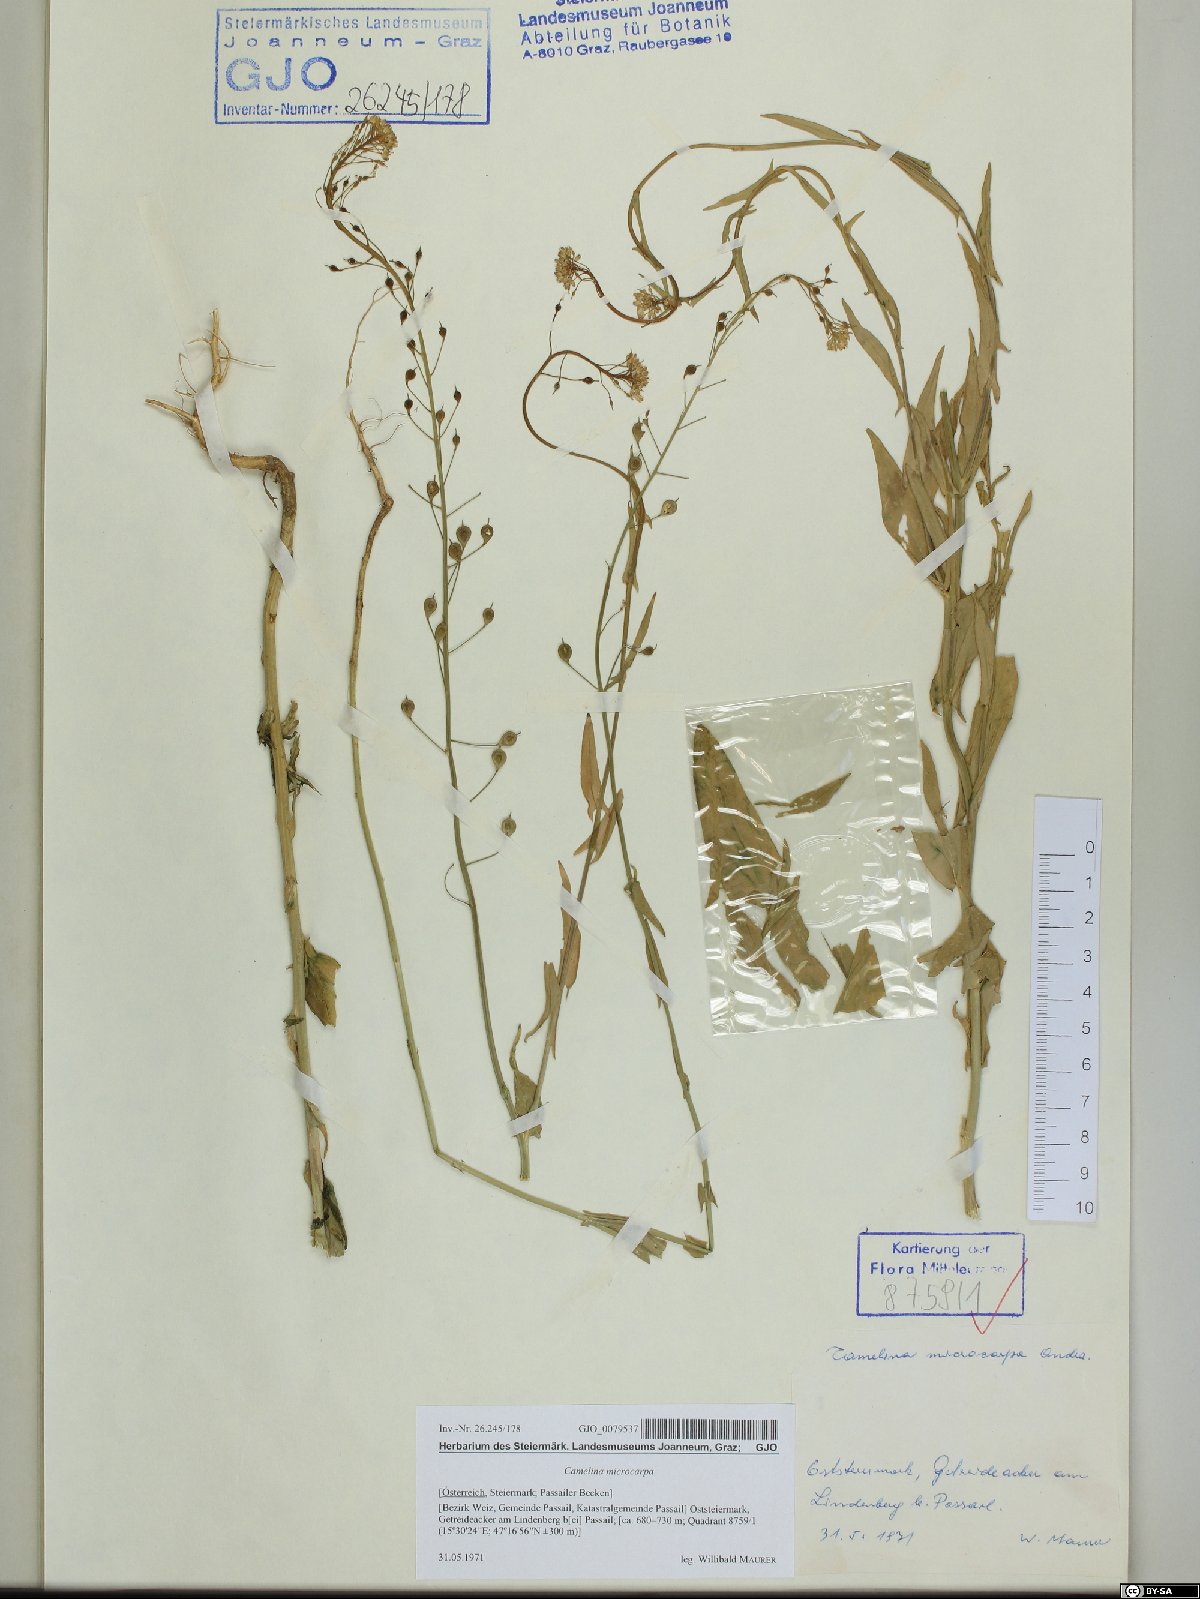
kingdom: Plantae
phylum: Tracheophyta
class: Magnoliopsida
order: Brassicales
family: Brassicaceae
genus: Camelina
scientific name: Camelina microcarpa
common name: Lesser gold-of-pleasure
